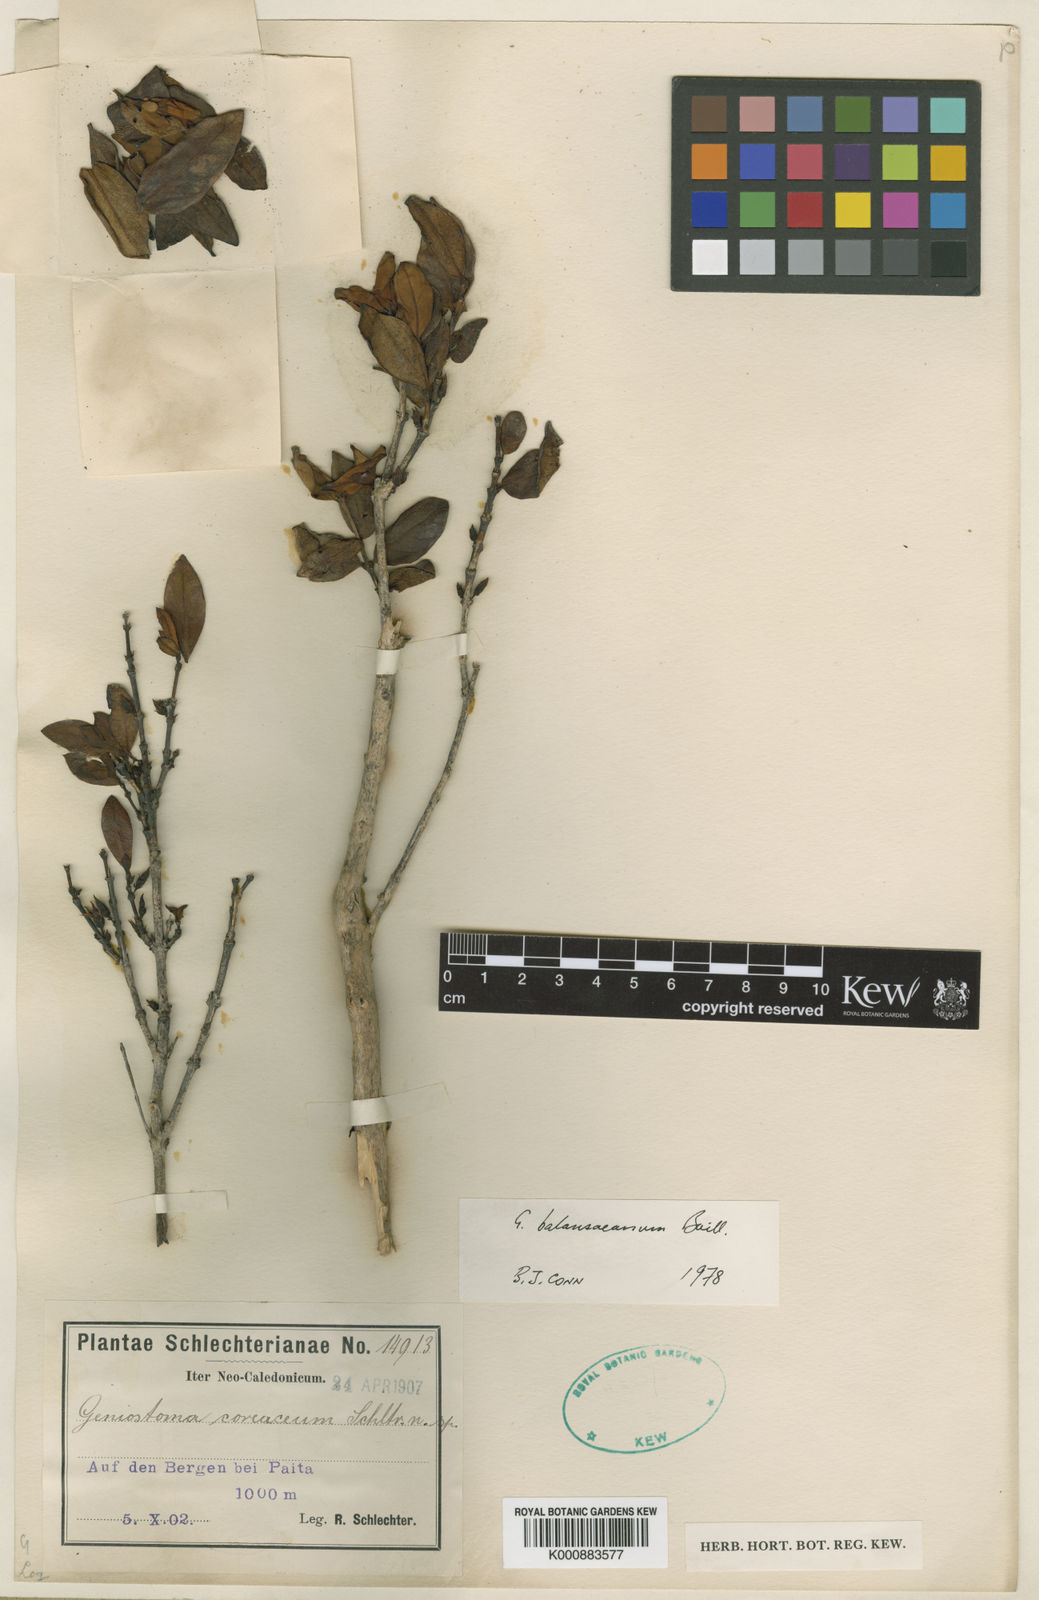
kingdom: Plantae
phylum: Tracheophyta
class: Magnoliopsida
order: Gentianales
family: Loganiaceae
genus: Geniostoma
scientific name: Geniostoma
